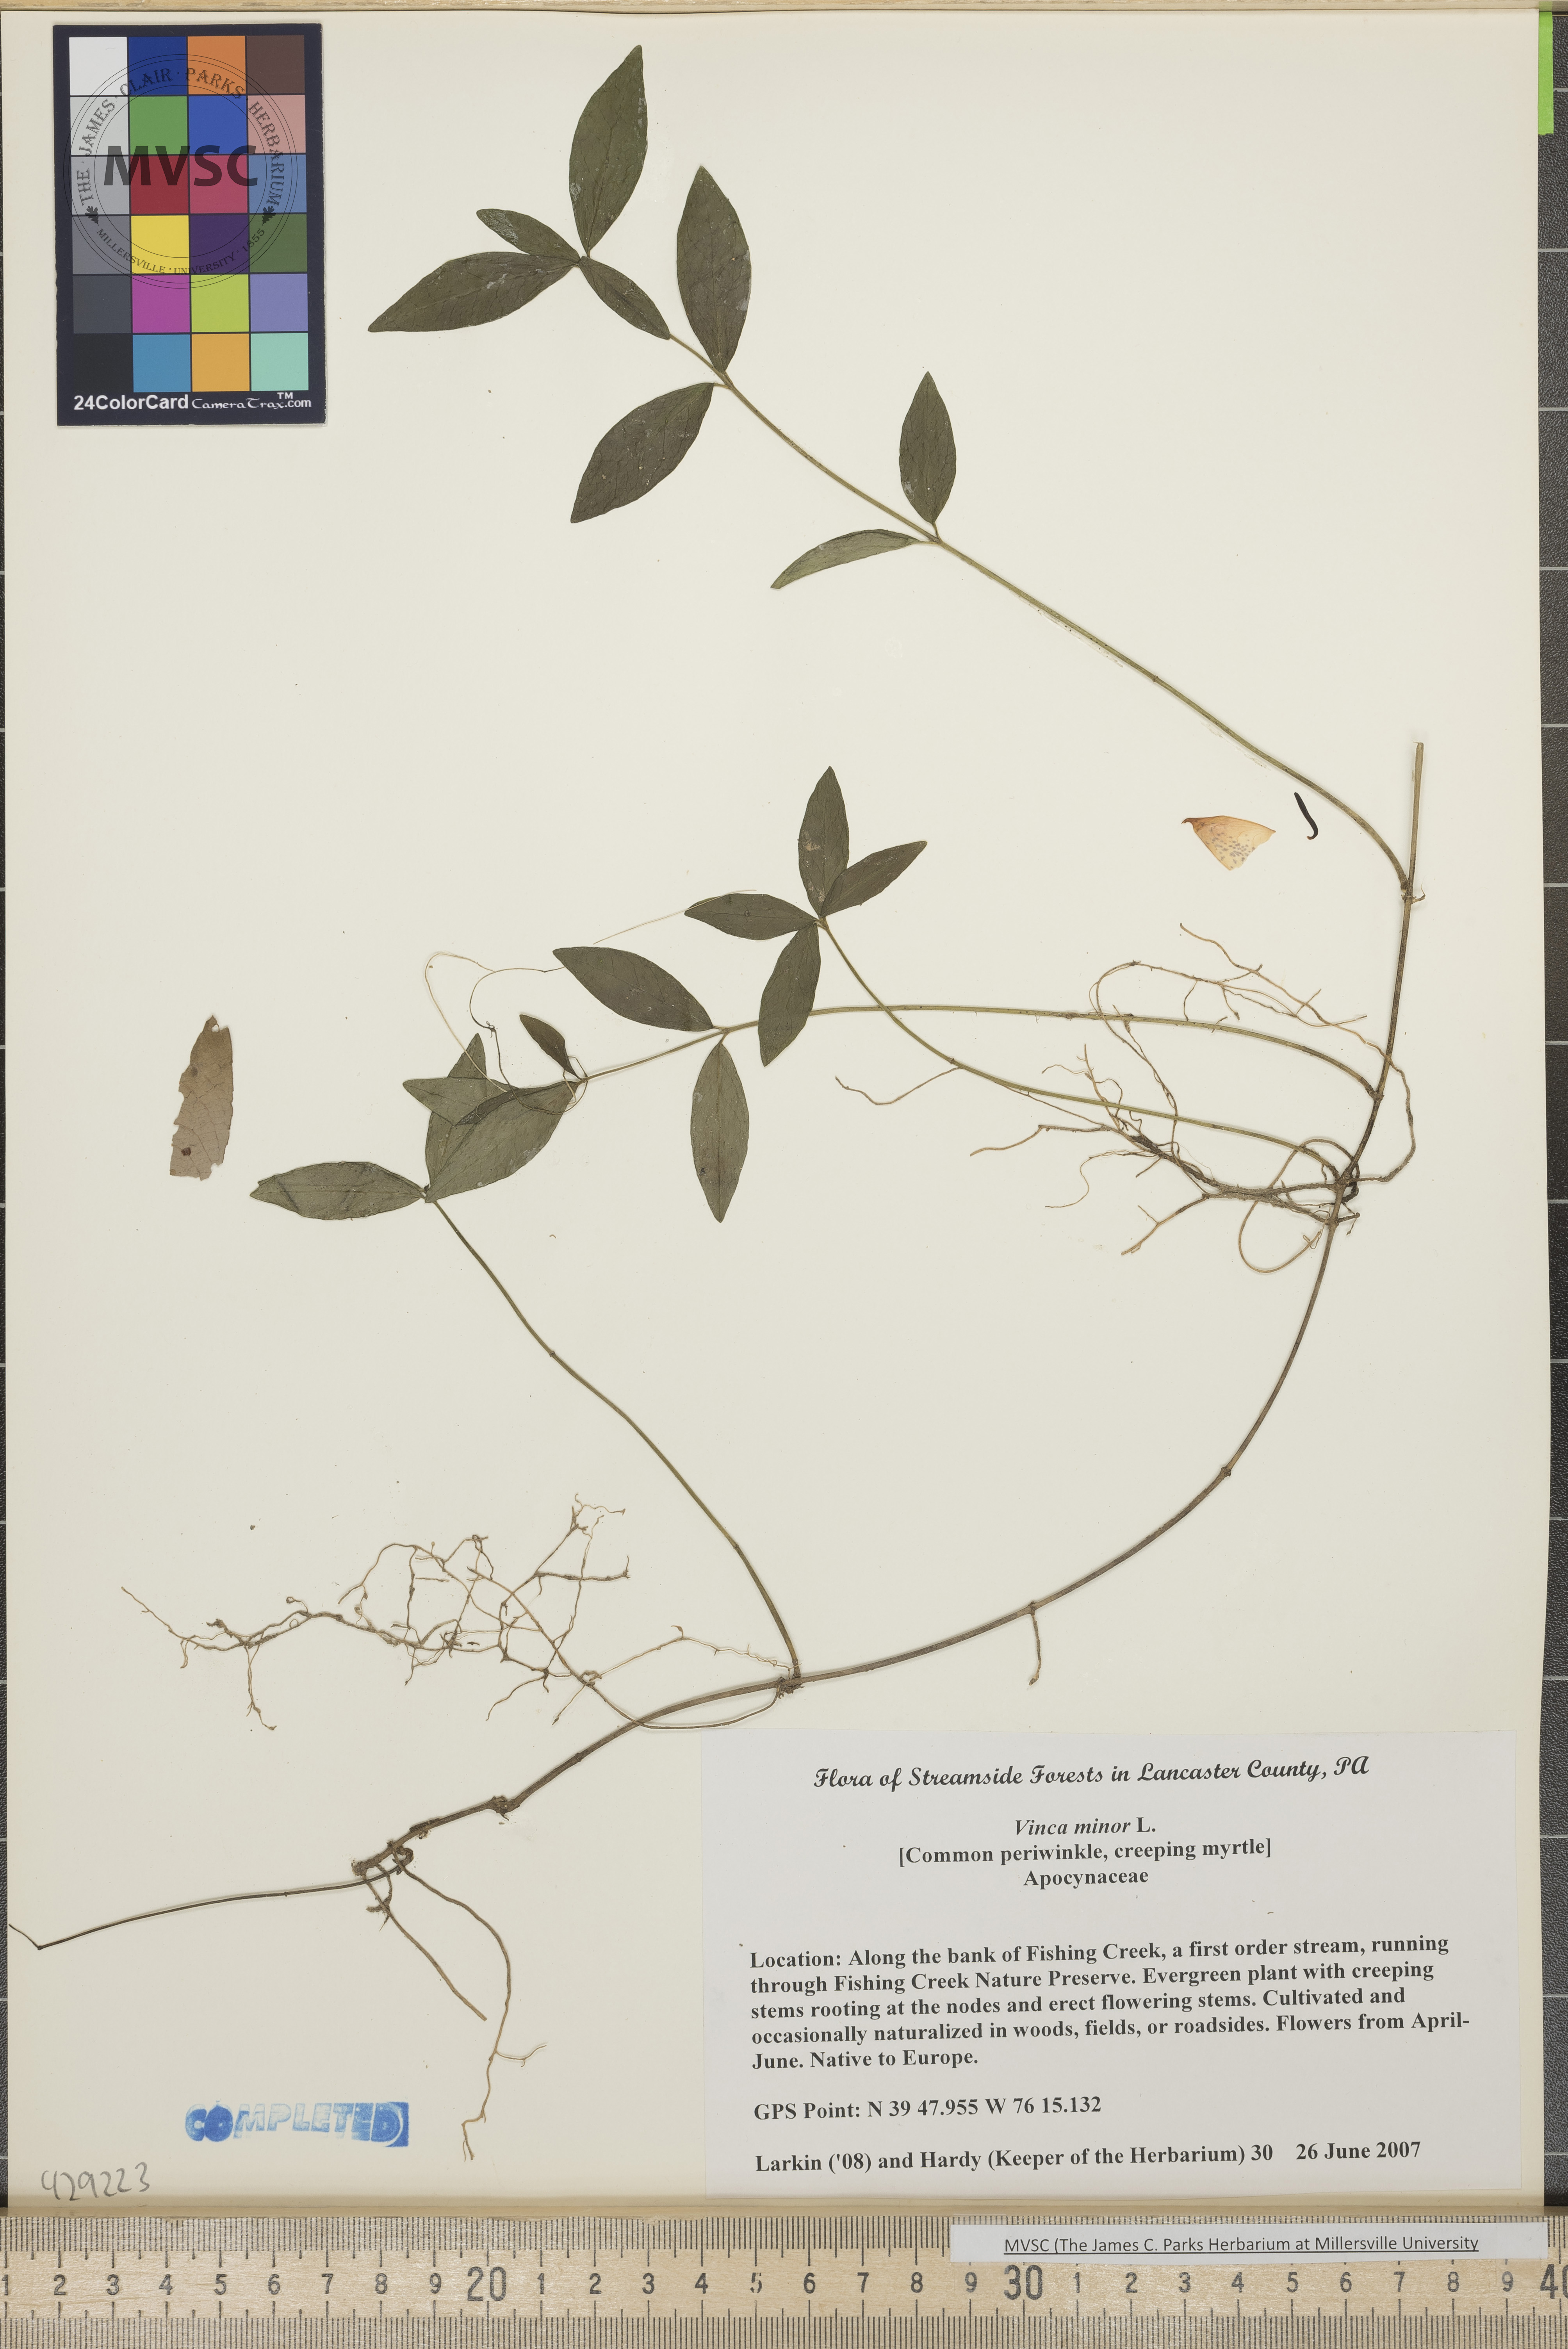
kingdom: Plantae
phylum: Tracheophyta
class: Magnoliopsida
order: Gentianales
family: Apocynaceae
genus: Vinca
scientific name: Vinca minor
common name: Periwinkle
